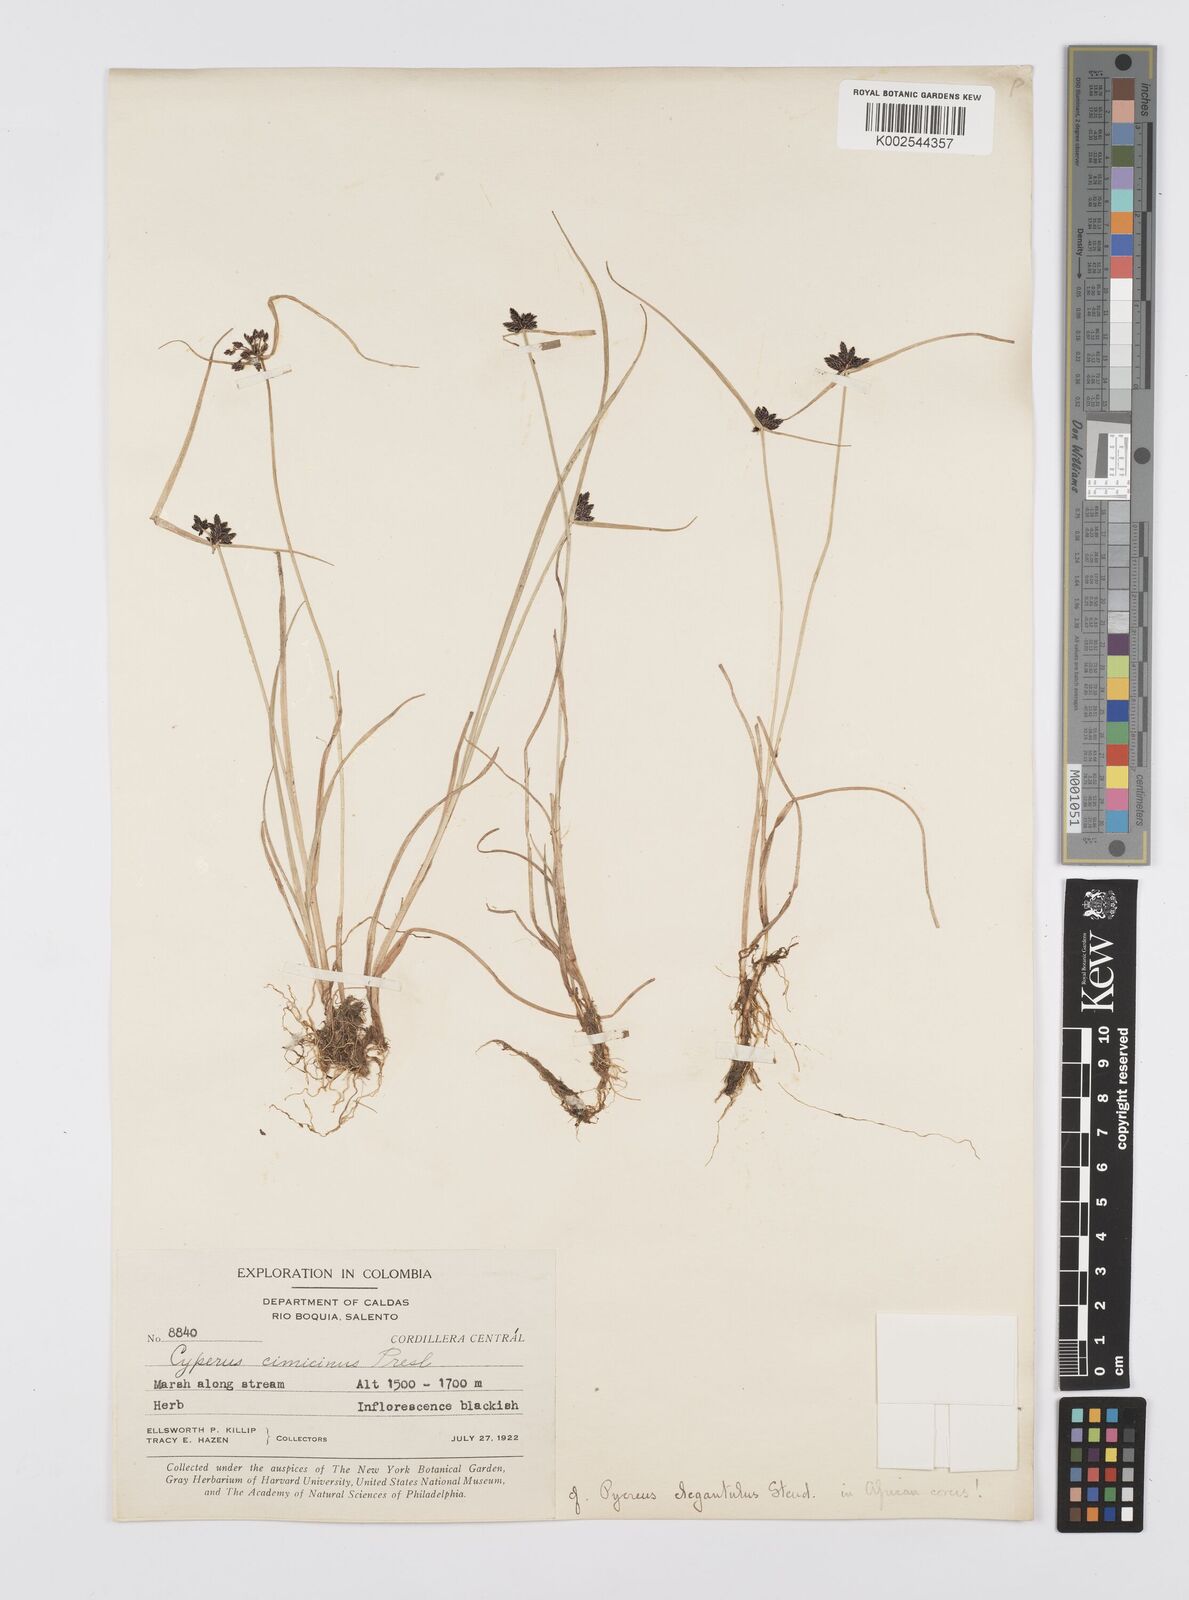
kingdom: Plantae
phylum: Tracheophyta
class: Liliopsida
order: Poales
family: Cyperaceae
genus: Cyperus
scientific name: Cyperus melanostachyus
